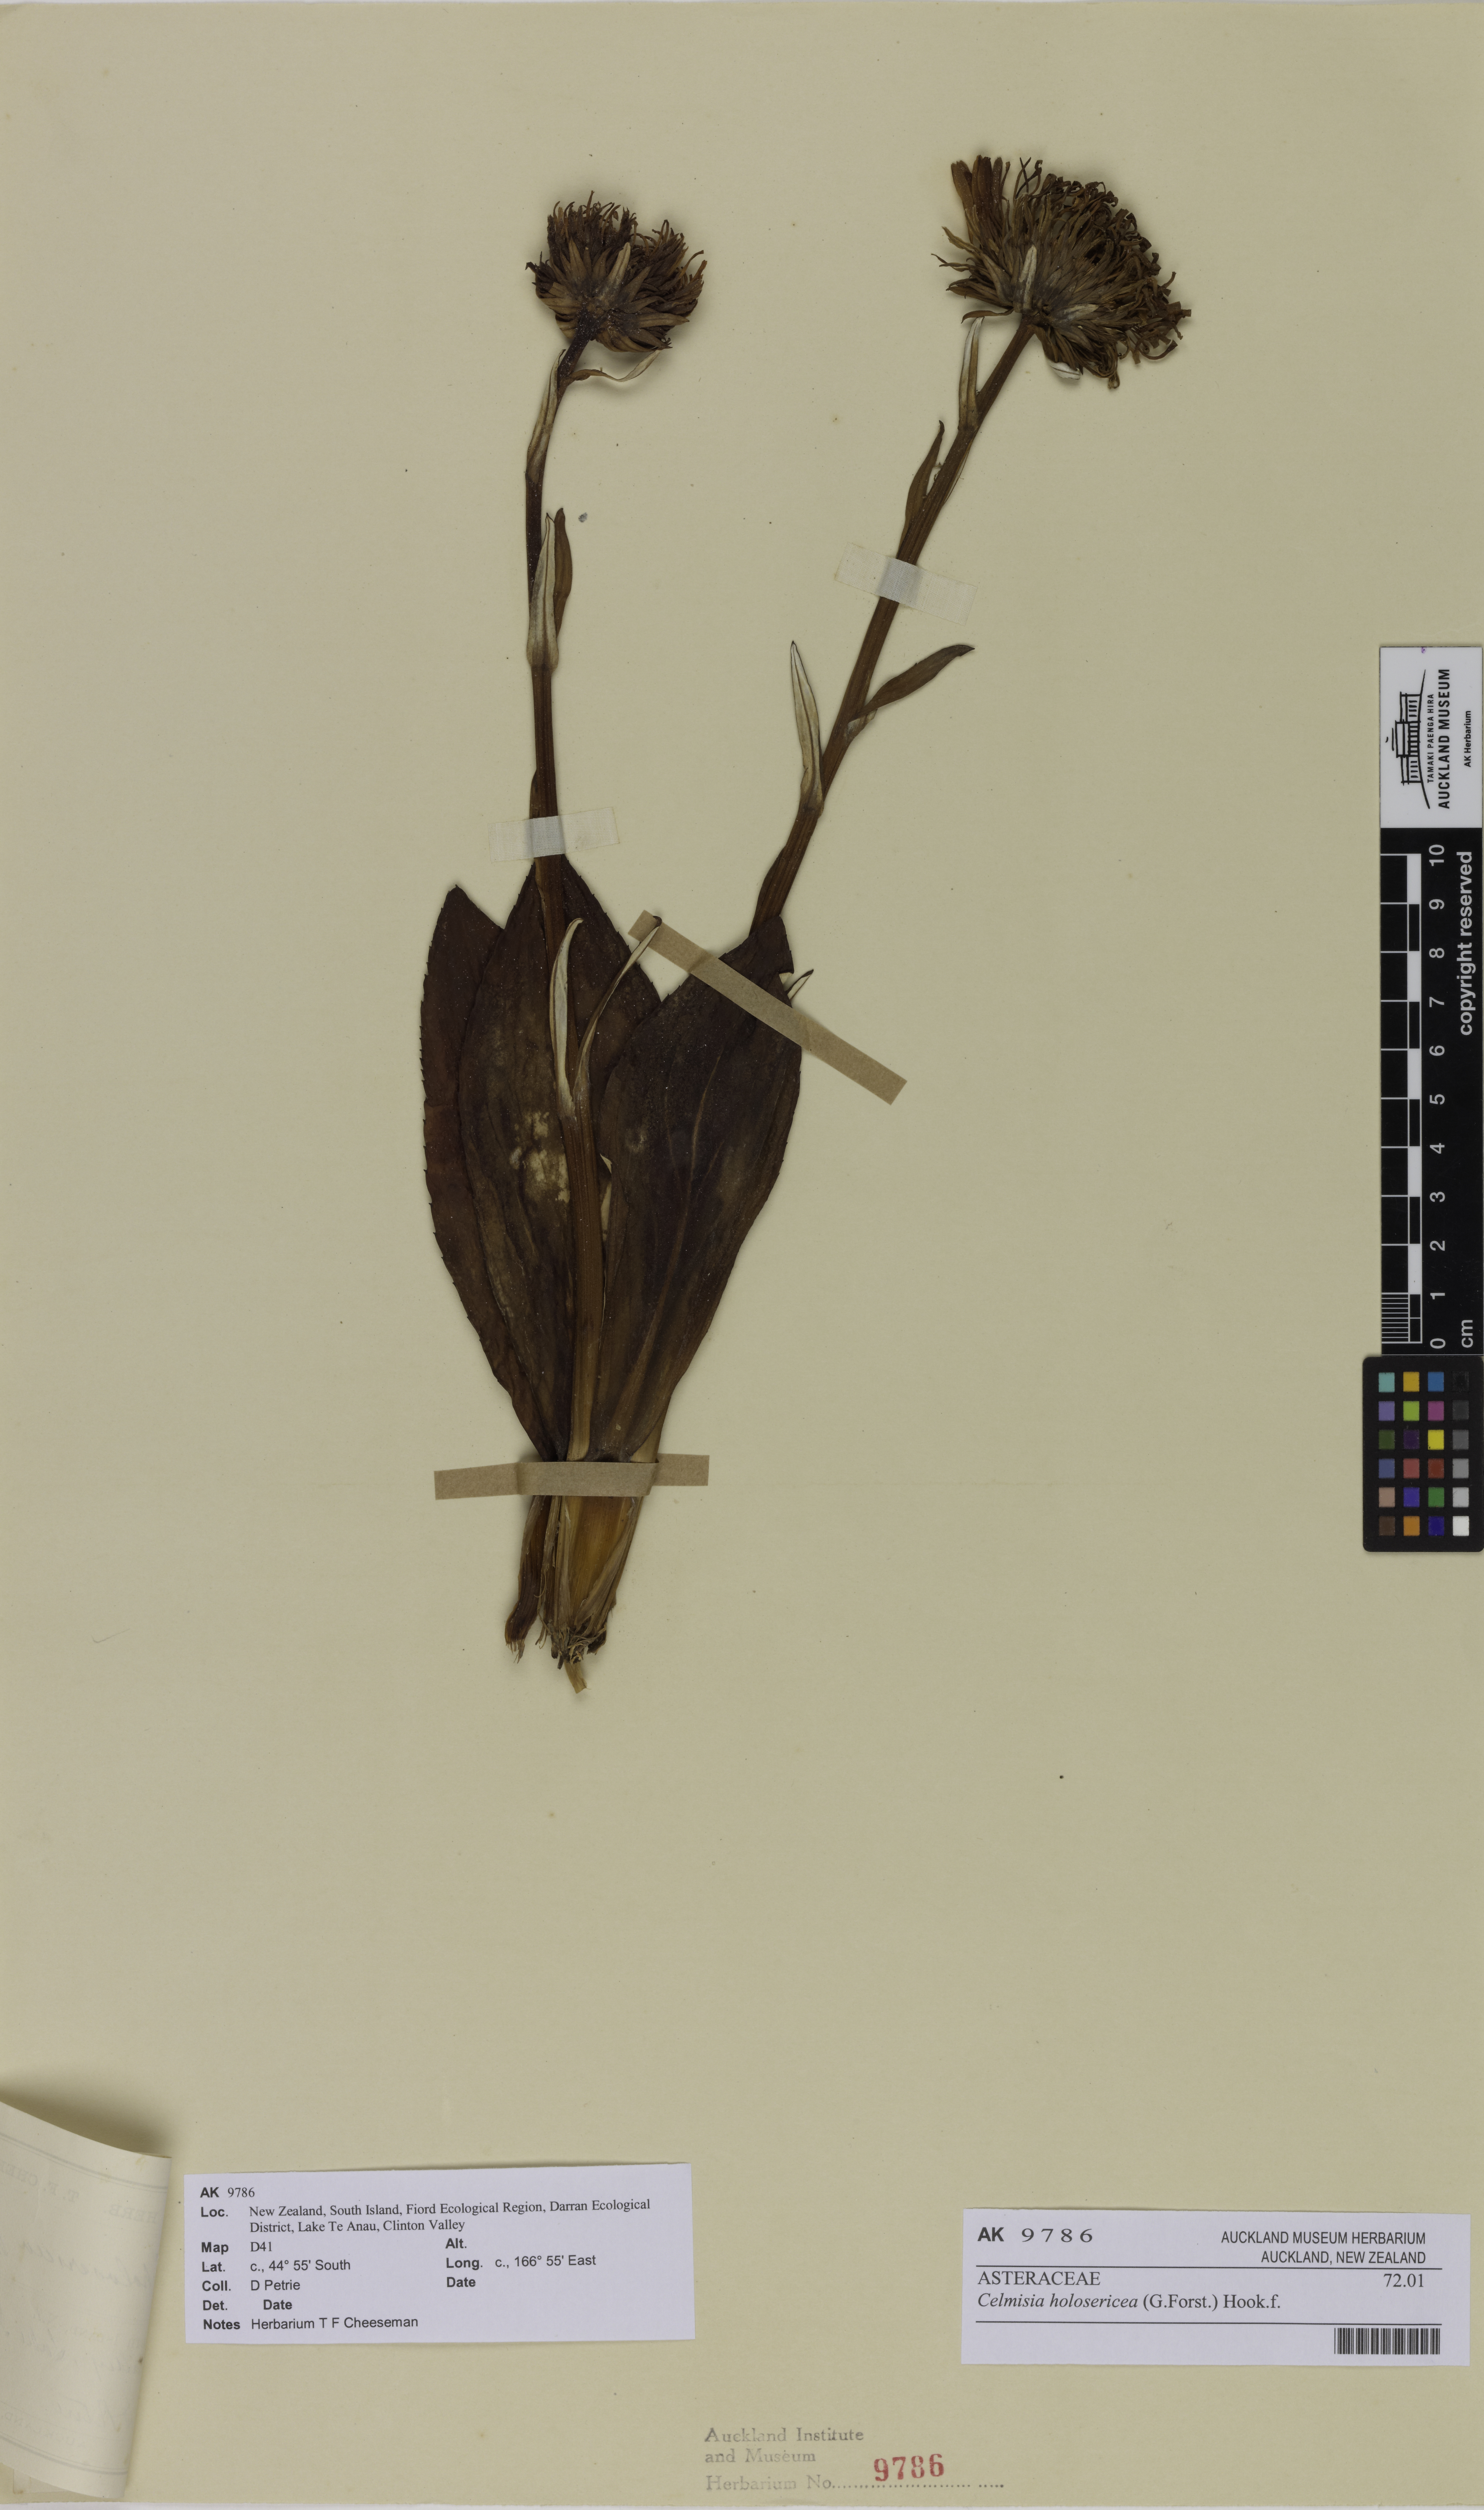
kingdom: Plantae
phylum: Tracheophyta
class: Magnoliopsida
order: Asterales
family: Asteraceae
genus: Celmisia
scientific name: Celmisia holosericea
